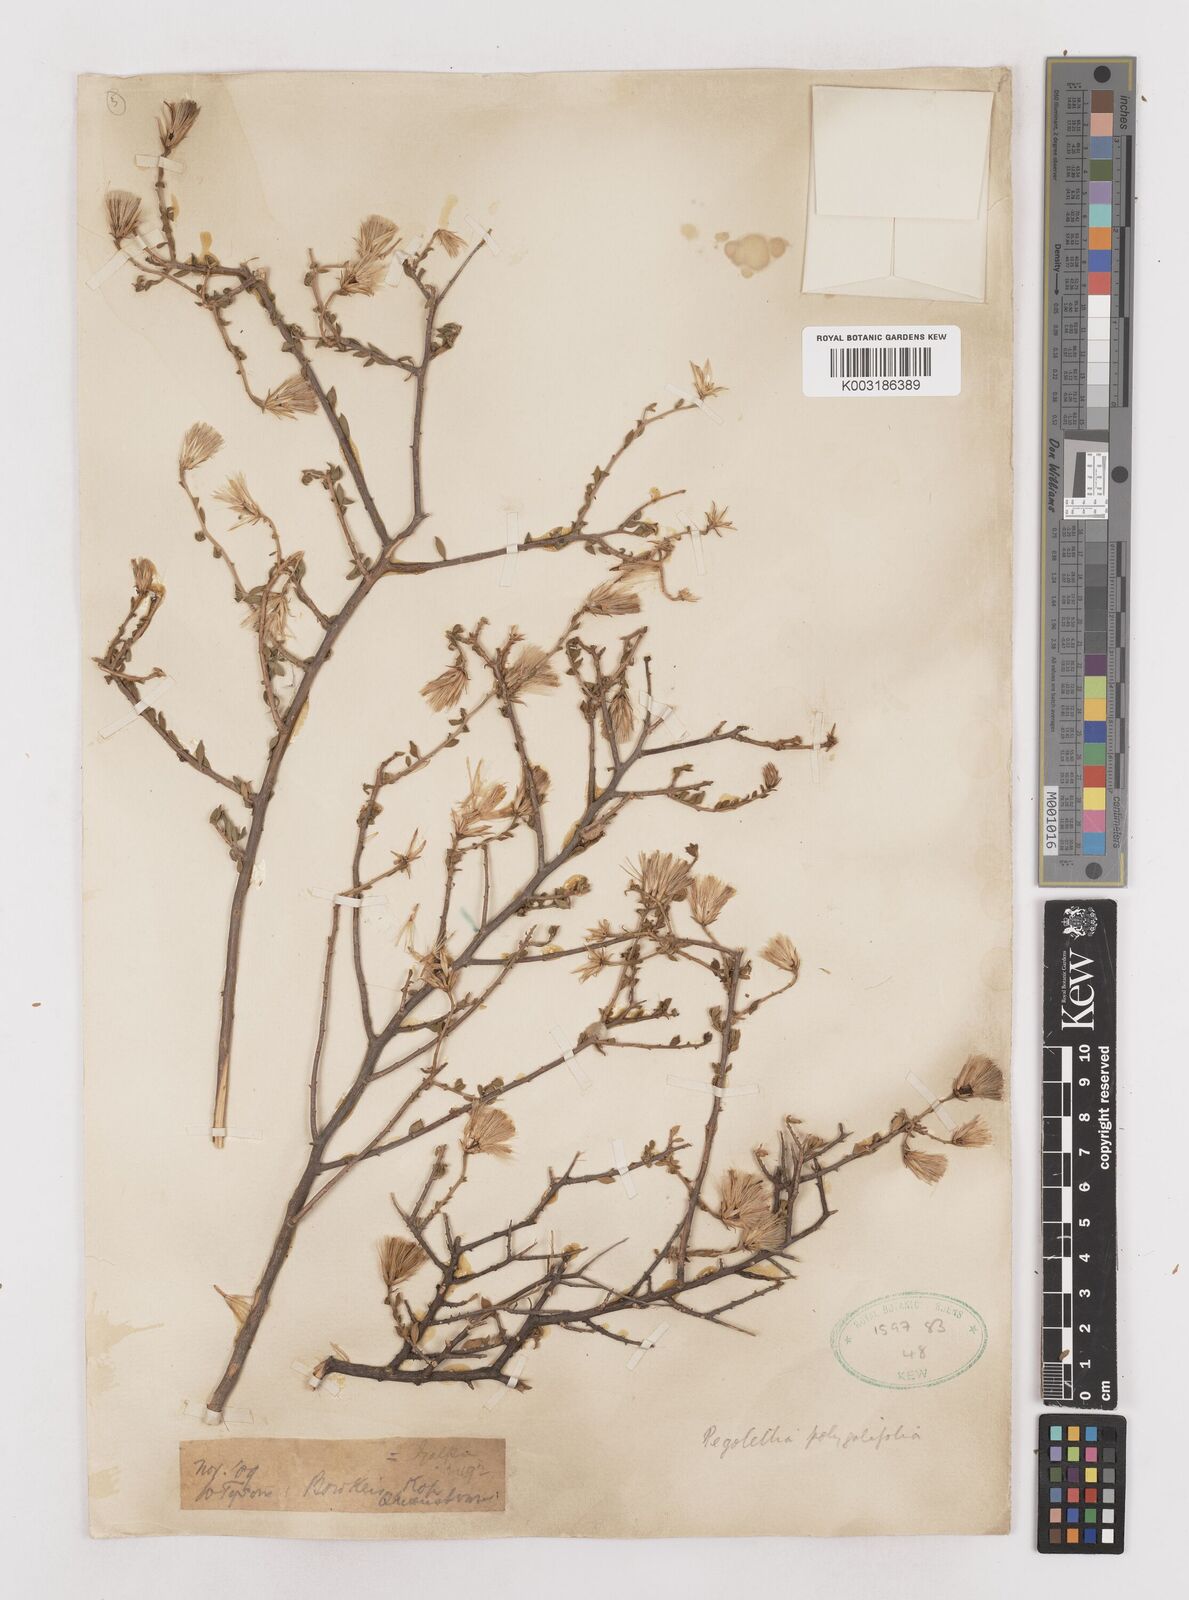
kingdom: Plantae
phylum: Tracheophyta
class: Magnoliopsida
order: Asterales
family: Asteraceae
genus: Pegolettia
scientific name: Pegolettia retrofracta
